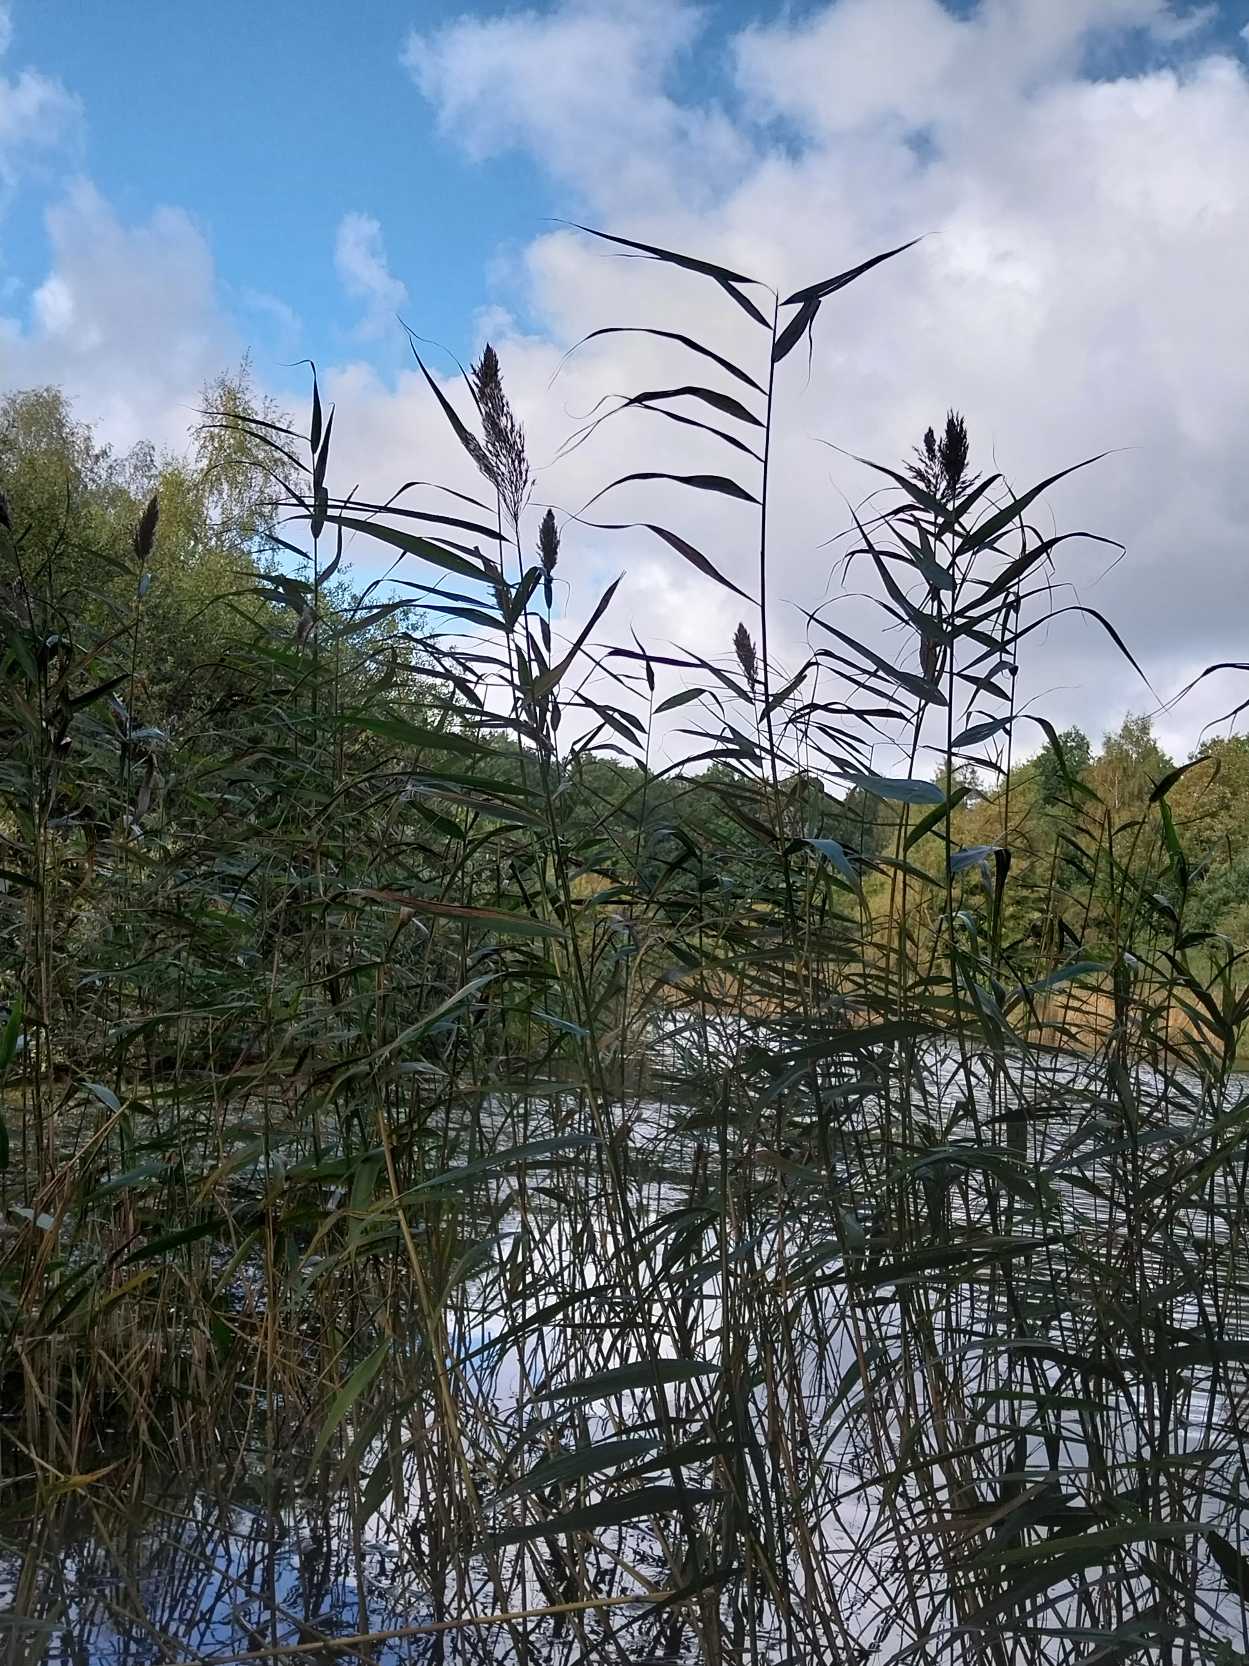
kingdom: Plantae
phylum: Tracheophyta
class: Liliopsida
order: Poales
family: Poaceae
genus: Phragmites
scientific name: Phragmites australis
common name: Tagrør
